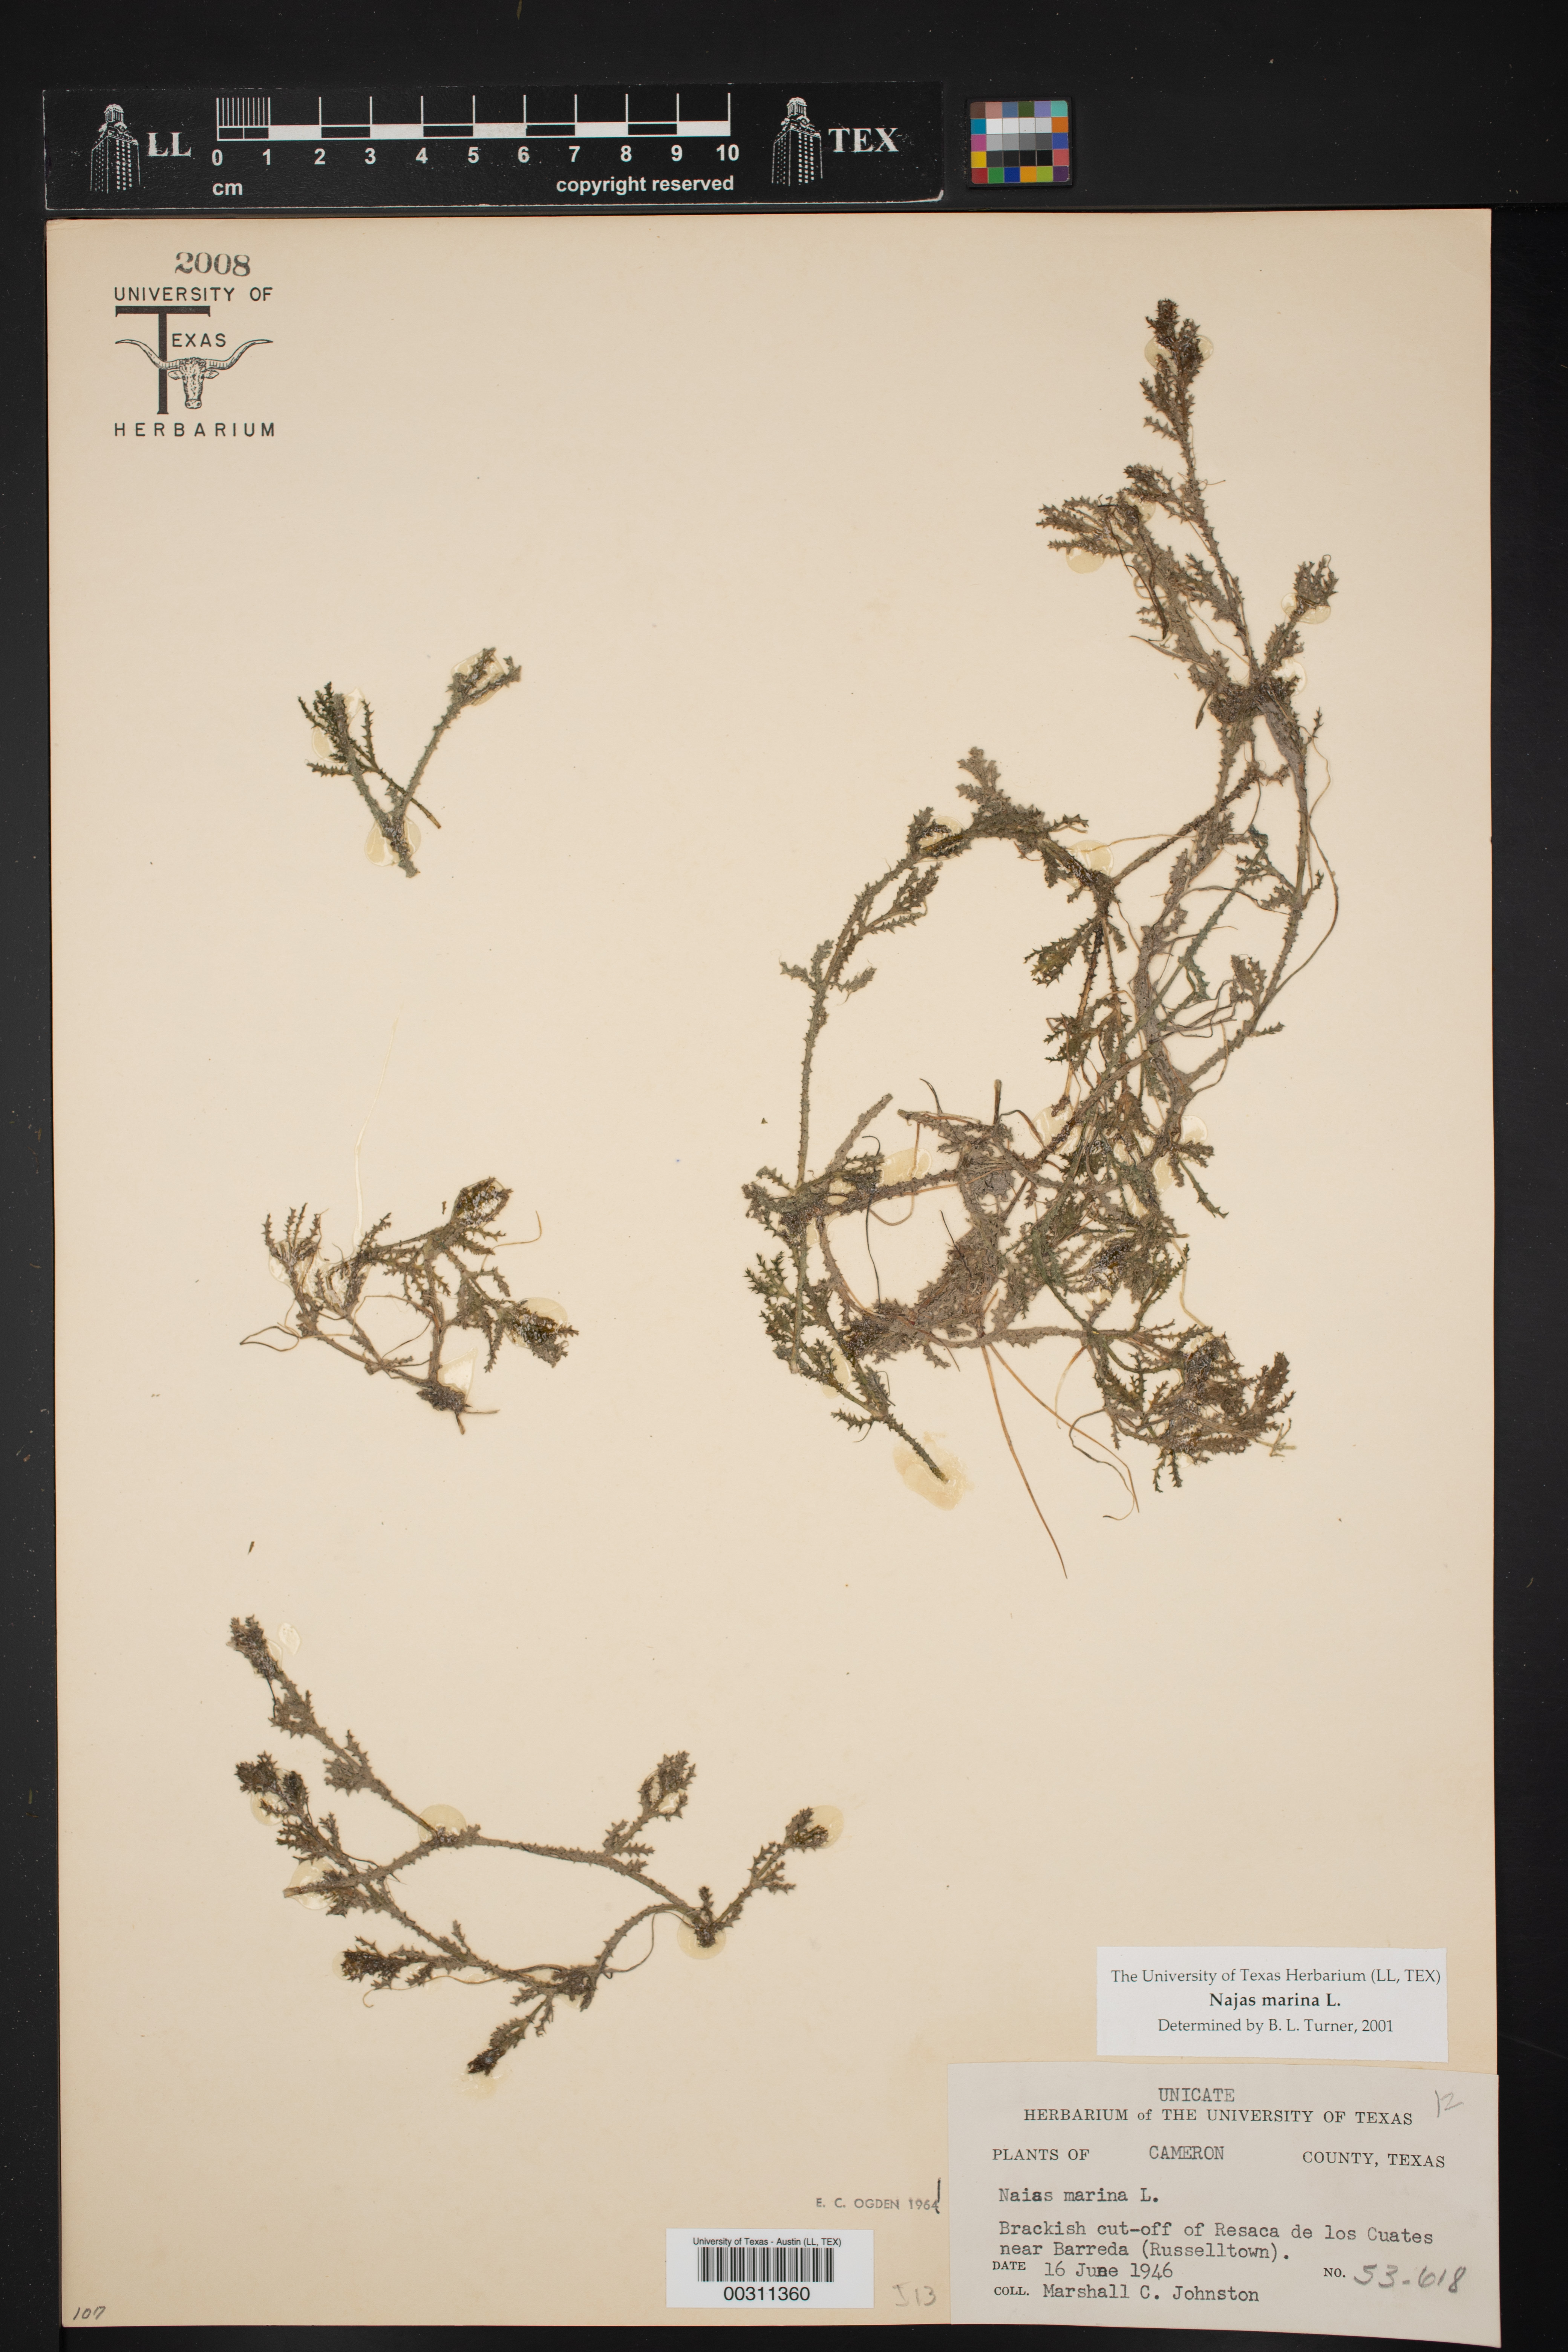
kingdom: Plantae
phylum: Tracheophyta
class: Liliopsida
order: Alismatales
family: Hydrocharitaceae
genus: Najas
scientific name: Najas marina
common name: Holly-leaved naiad
